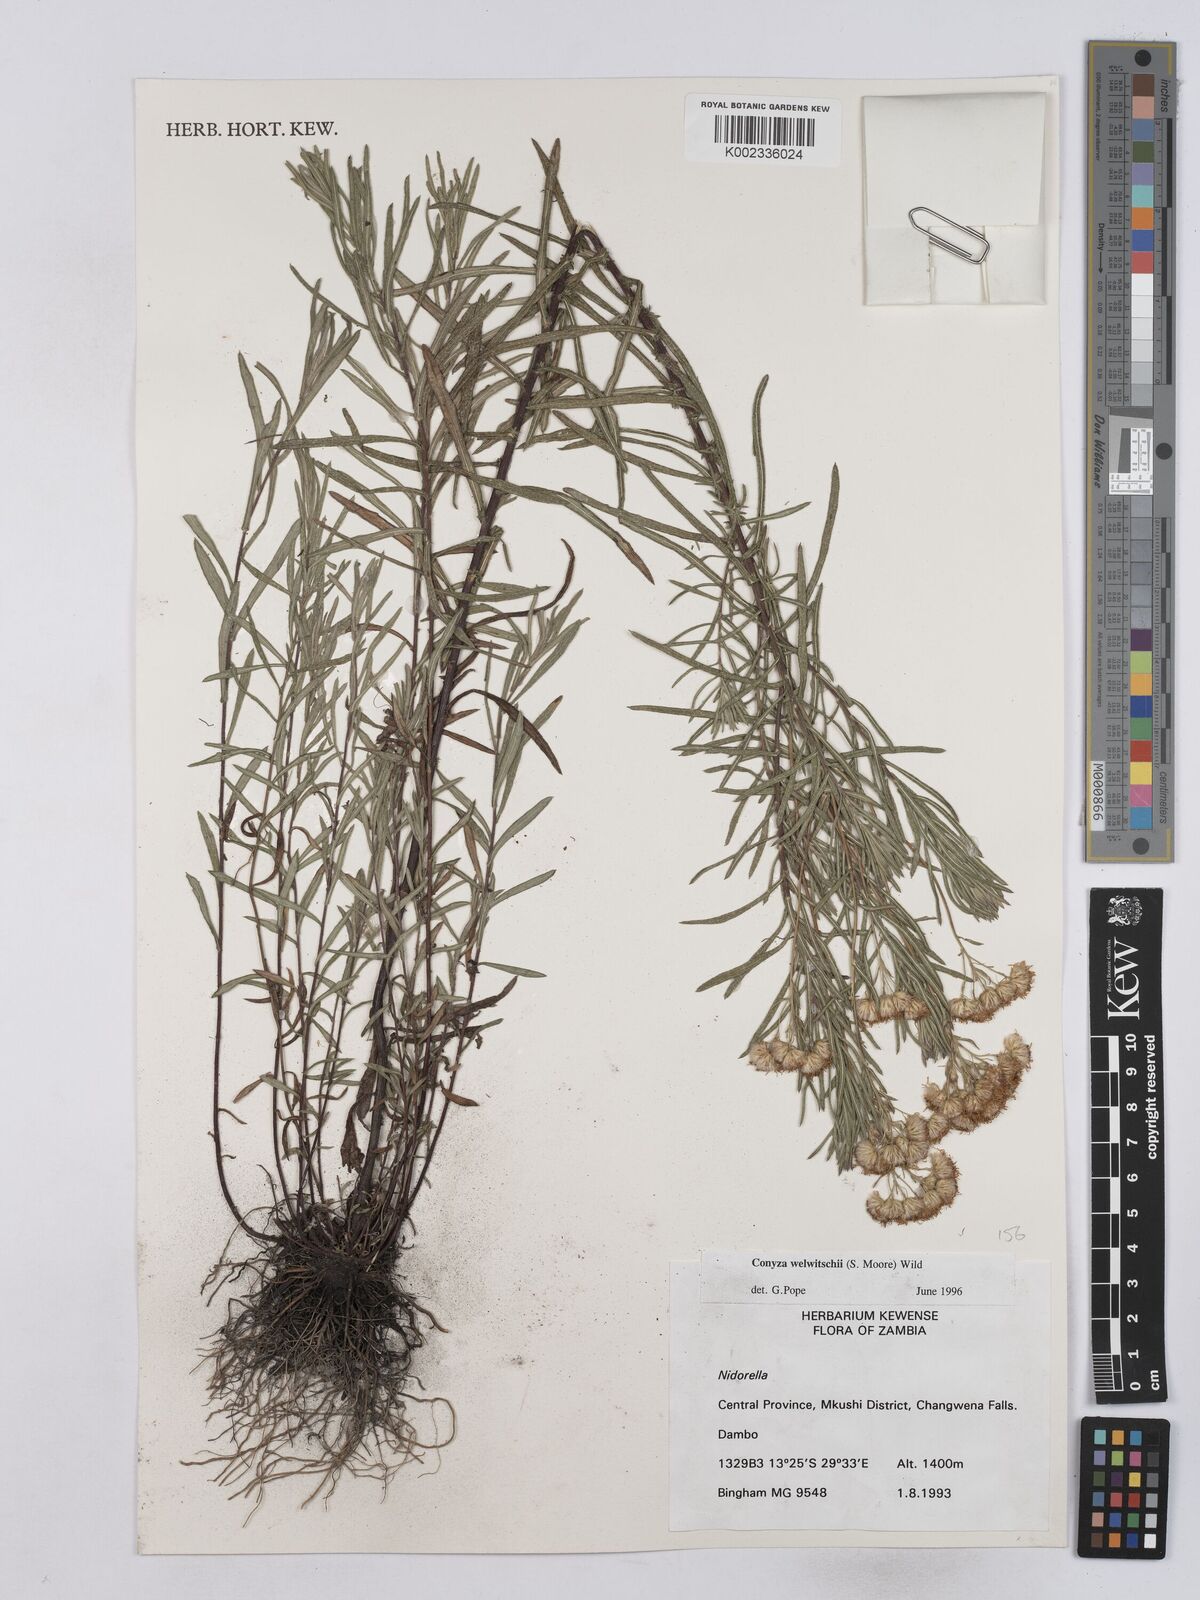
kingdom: Plantae
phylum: Tracheophyta
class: Magnoliopsida
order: Asterales
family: Asteraceae
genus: Nidorella
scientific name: Nidorella welwitschii
